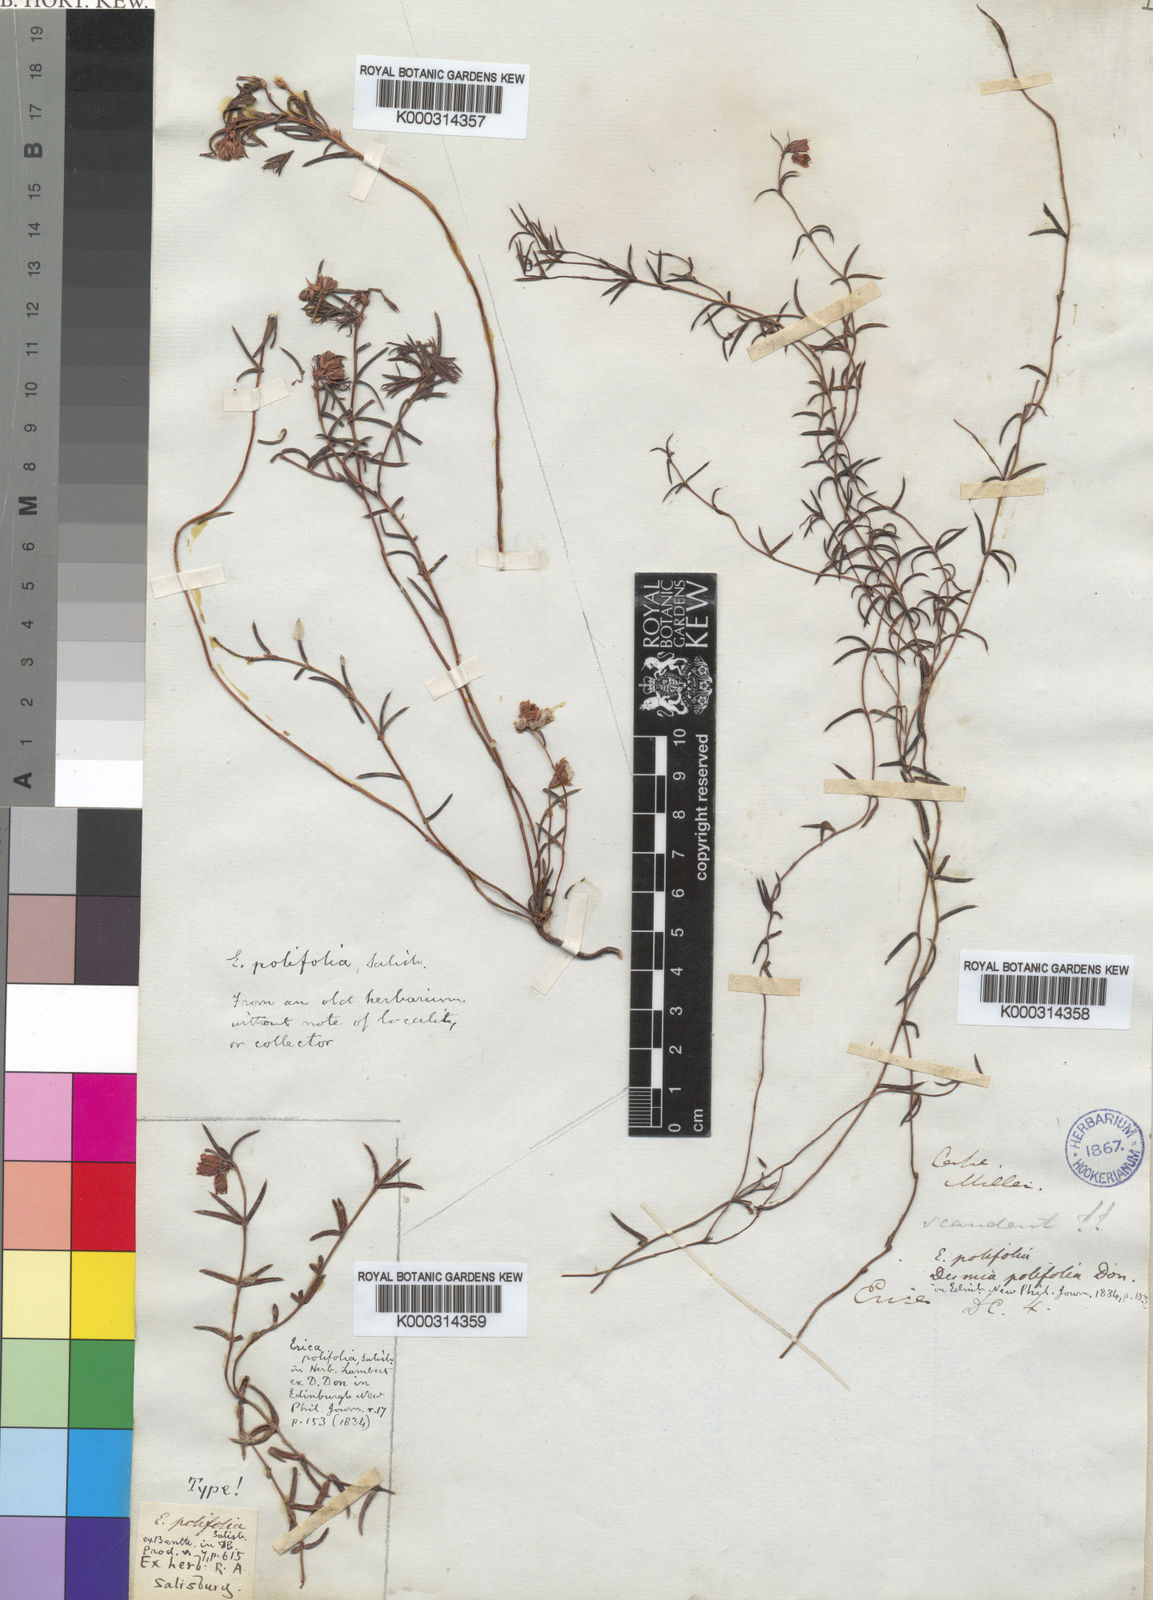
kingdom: Plantae
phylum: Tracheophyta
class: Magnoliopsida
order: Ericales
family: Ericaceae
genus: Erica
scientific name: Erica polifolia
